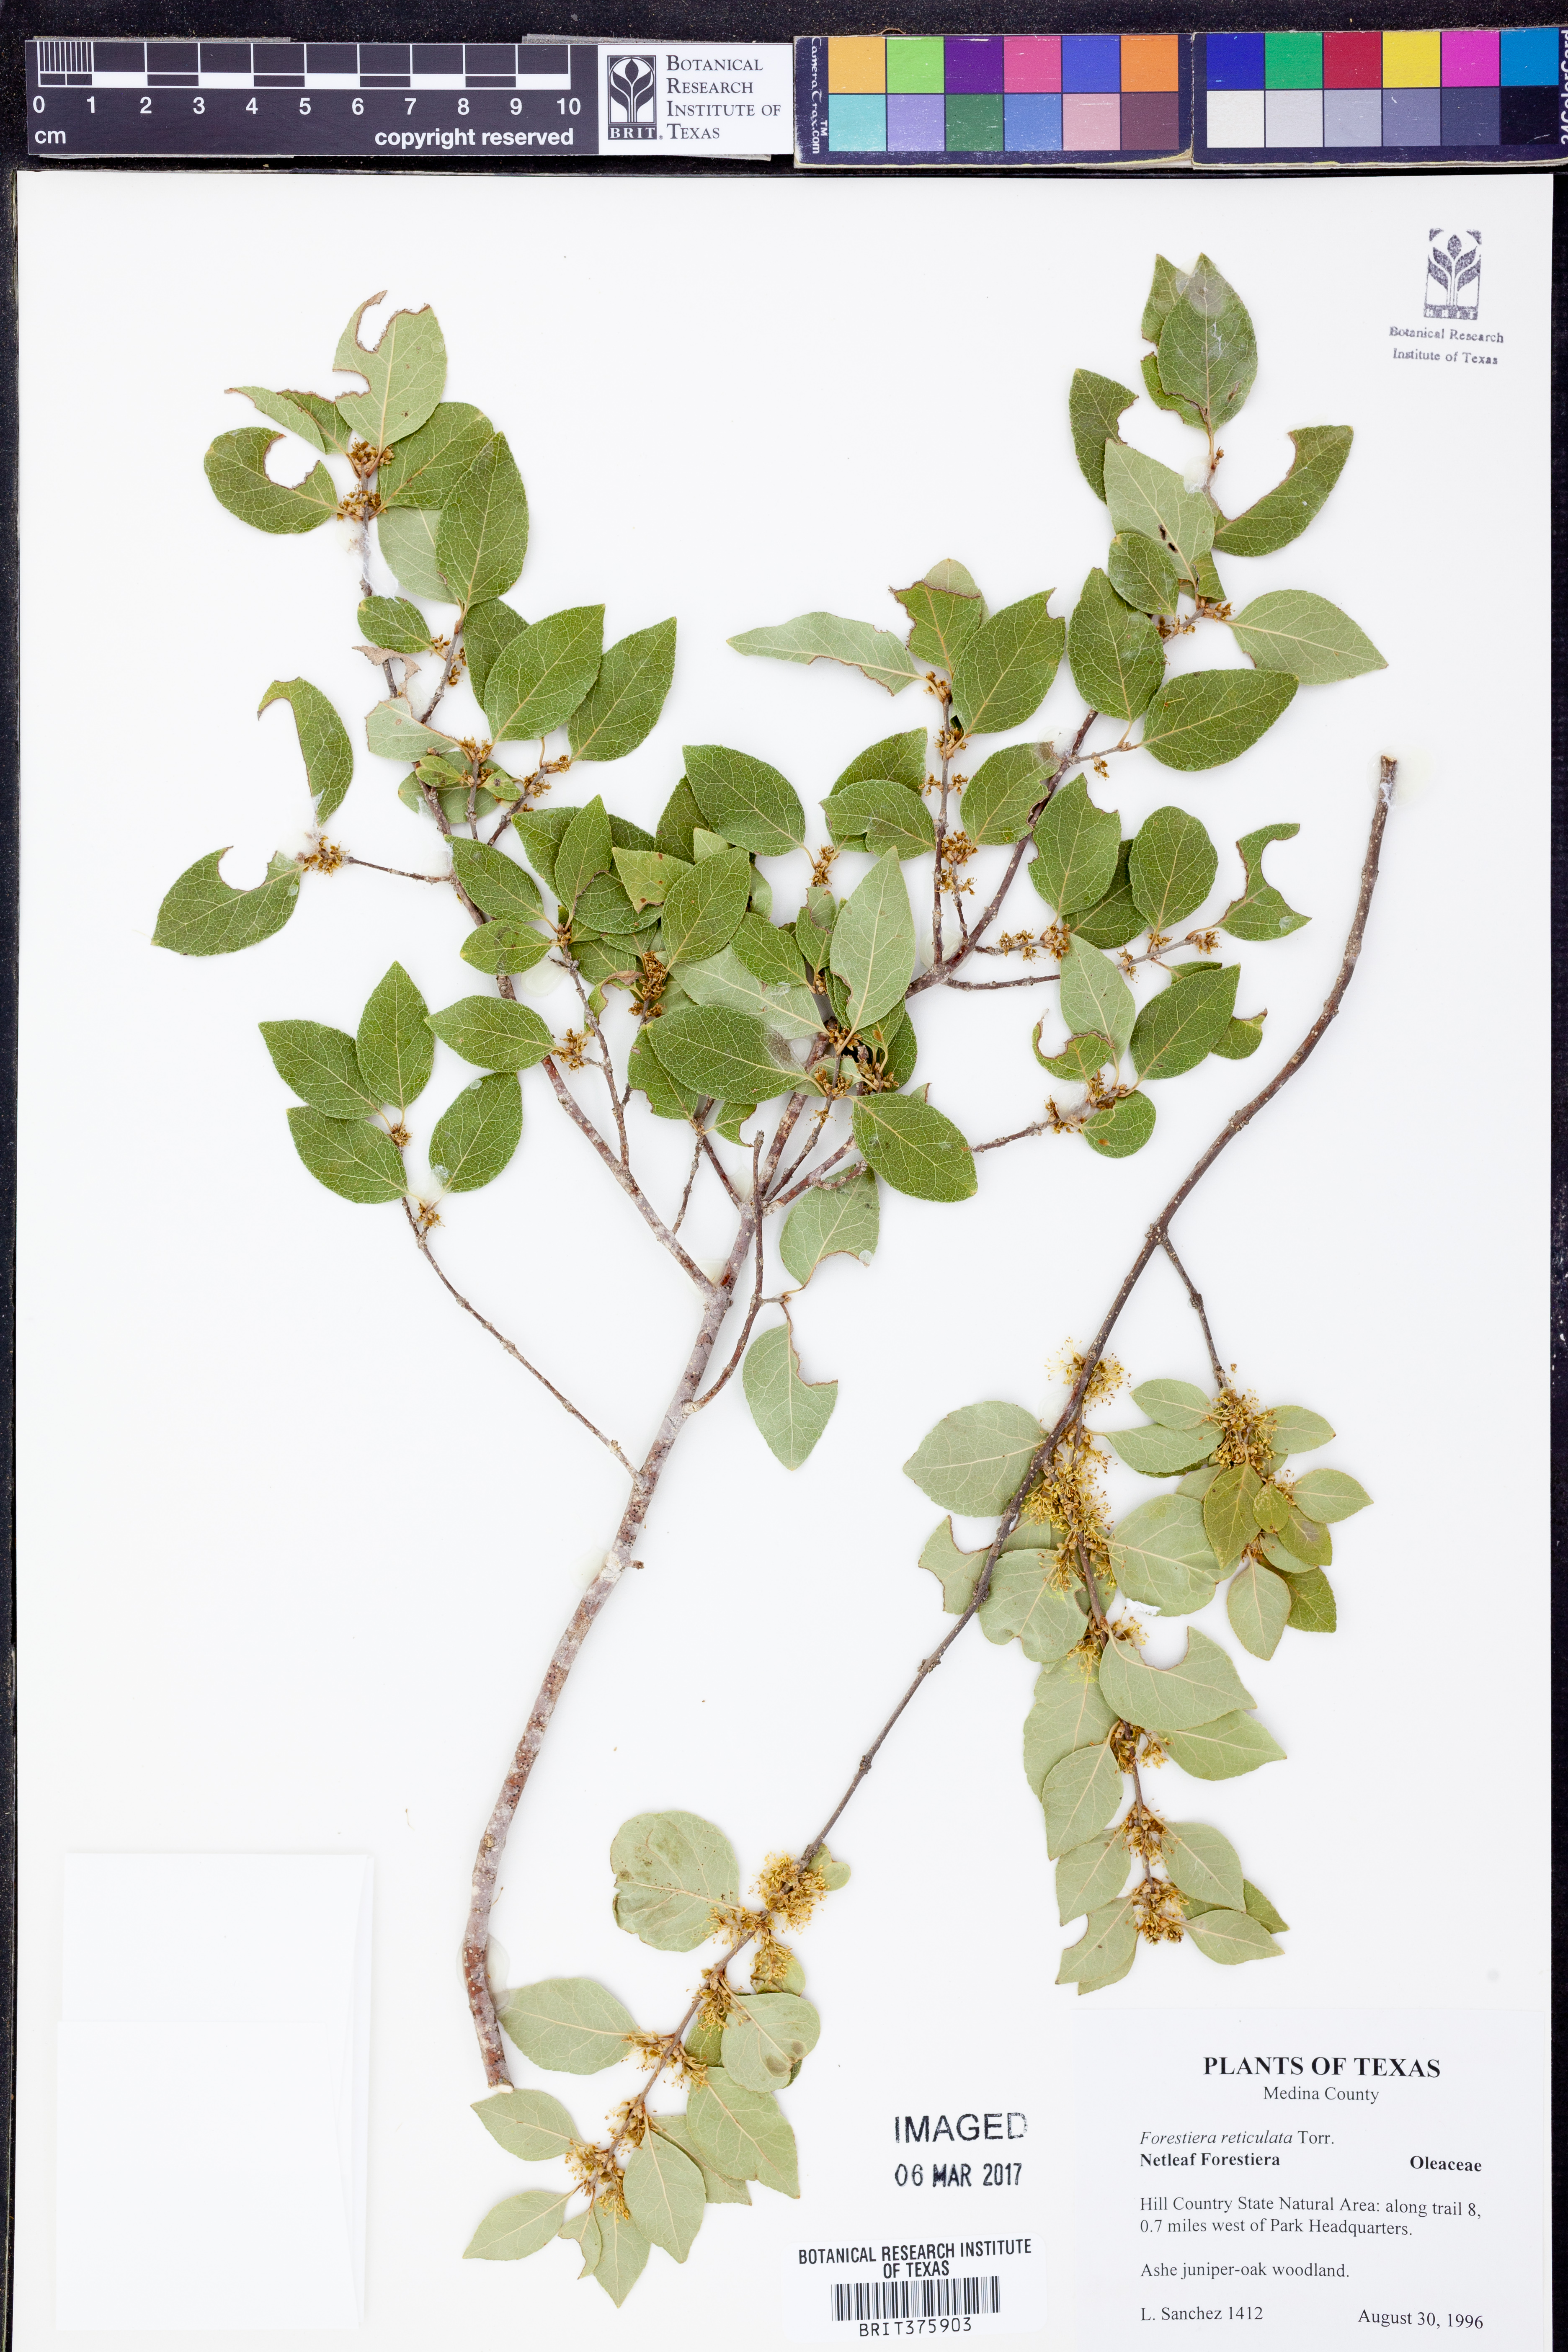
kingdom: Plantae
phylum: Tracheophyta
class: Magnoliopsida
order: Lamiales
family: Oleaceae
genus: Forestiera
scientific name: Forestiera reticulata
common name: Netleaf swamp-privet
